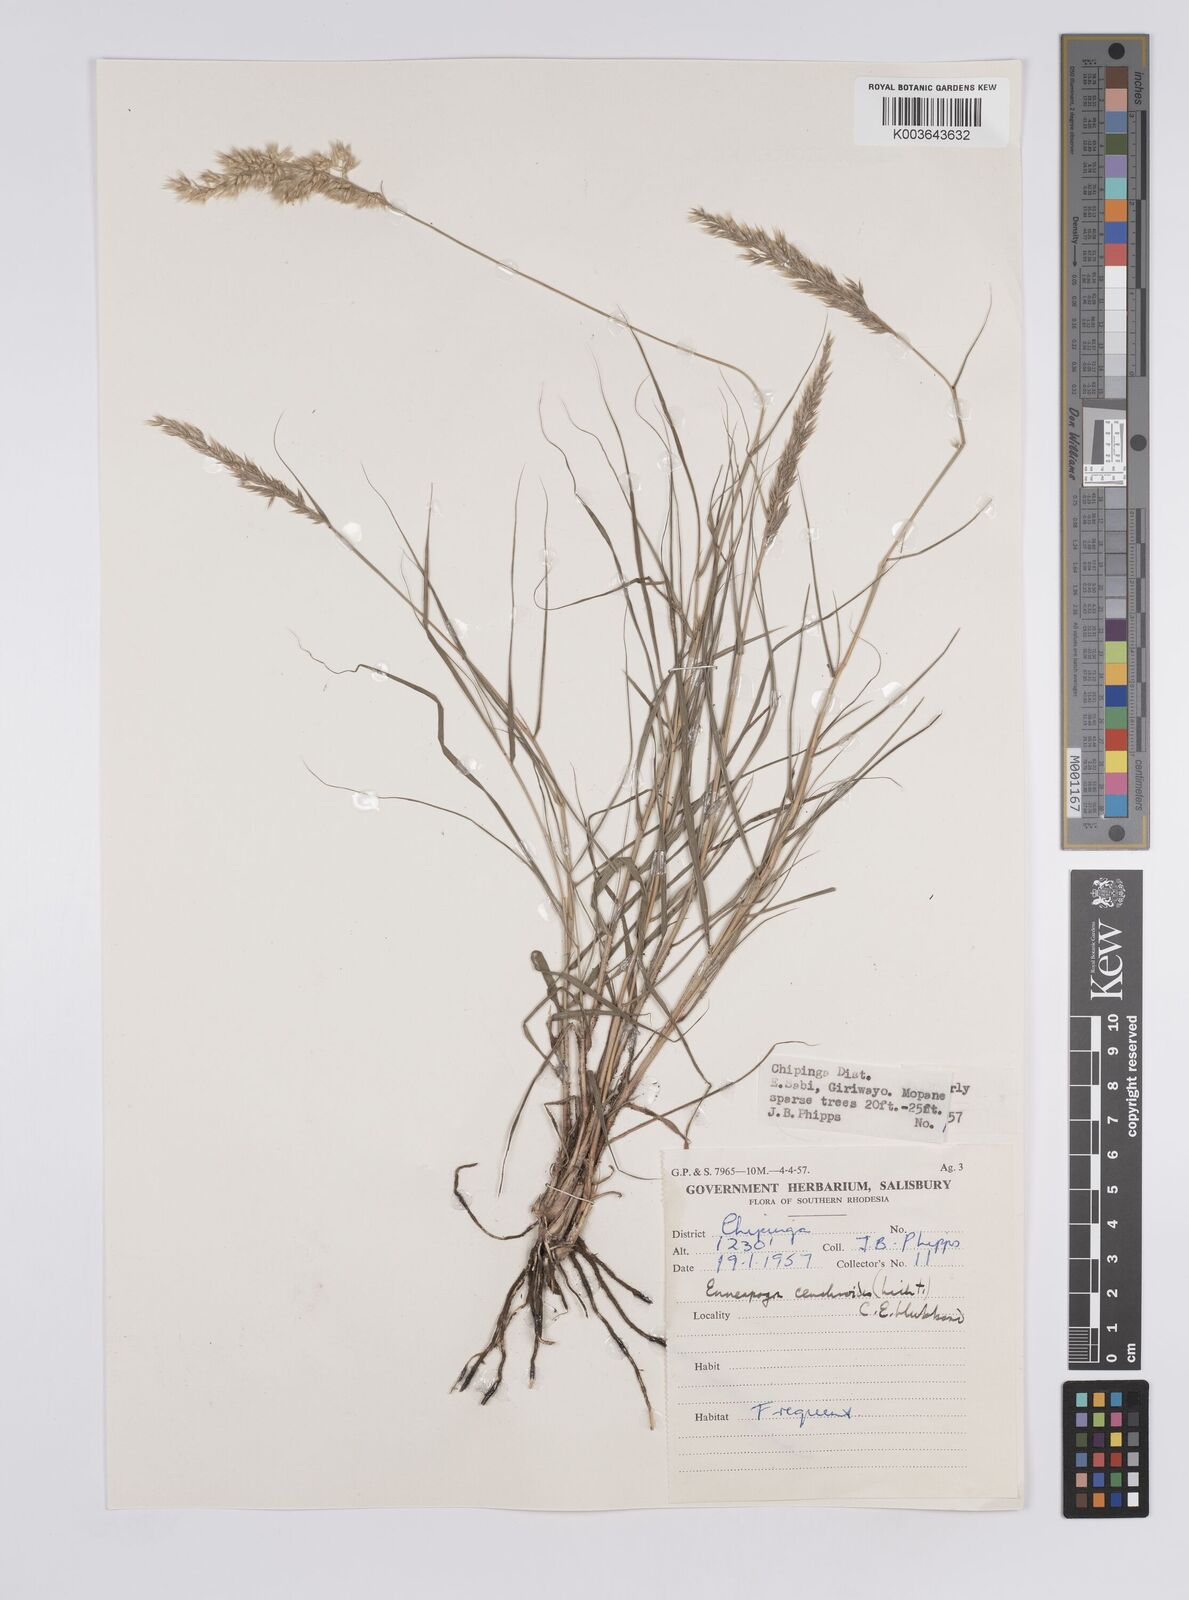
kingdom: Plantae
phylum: Tracheophyta
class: Liliopsida
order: Poales
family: Poaceae
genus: Enneapogon
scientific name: Enneapogon cenchroides
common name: Soft feather pappusgrass
